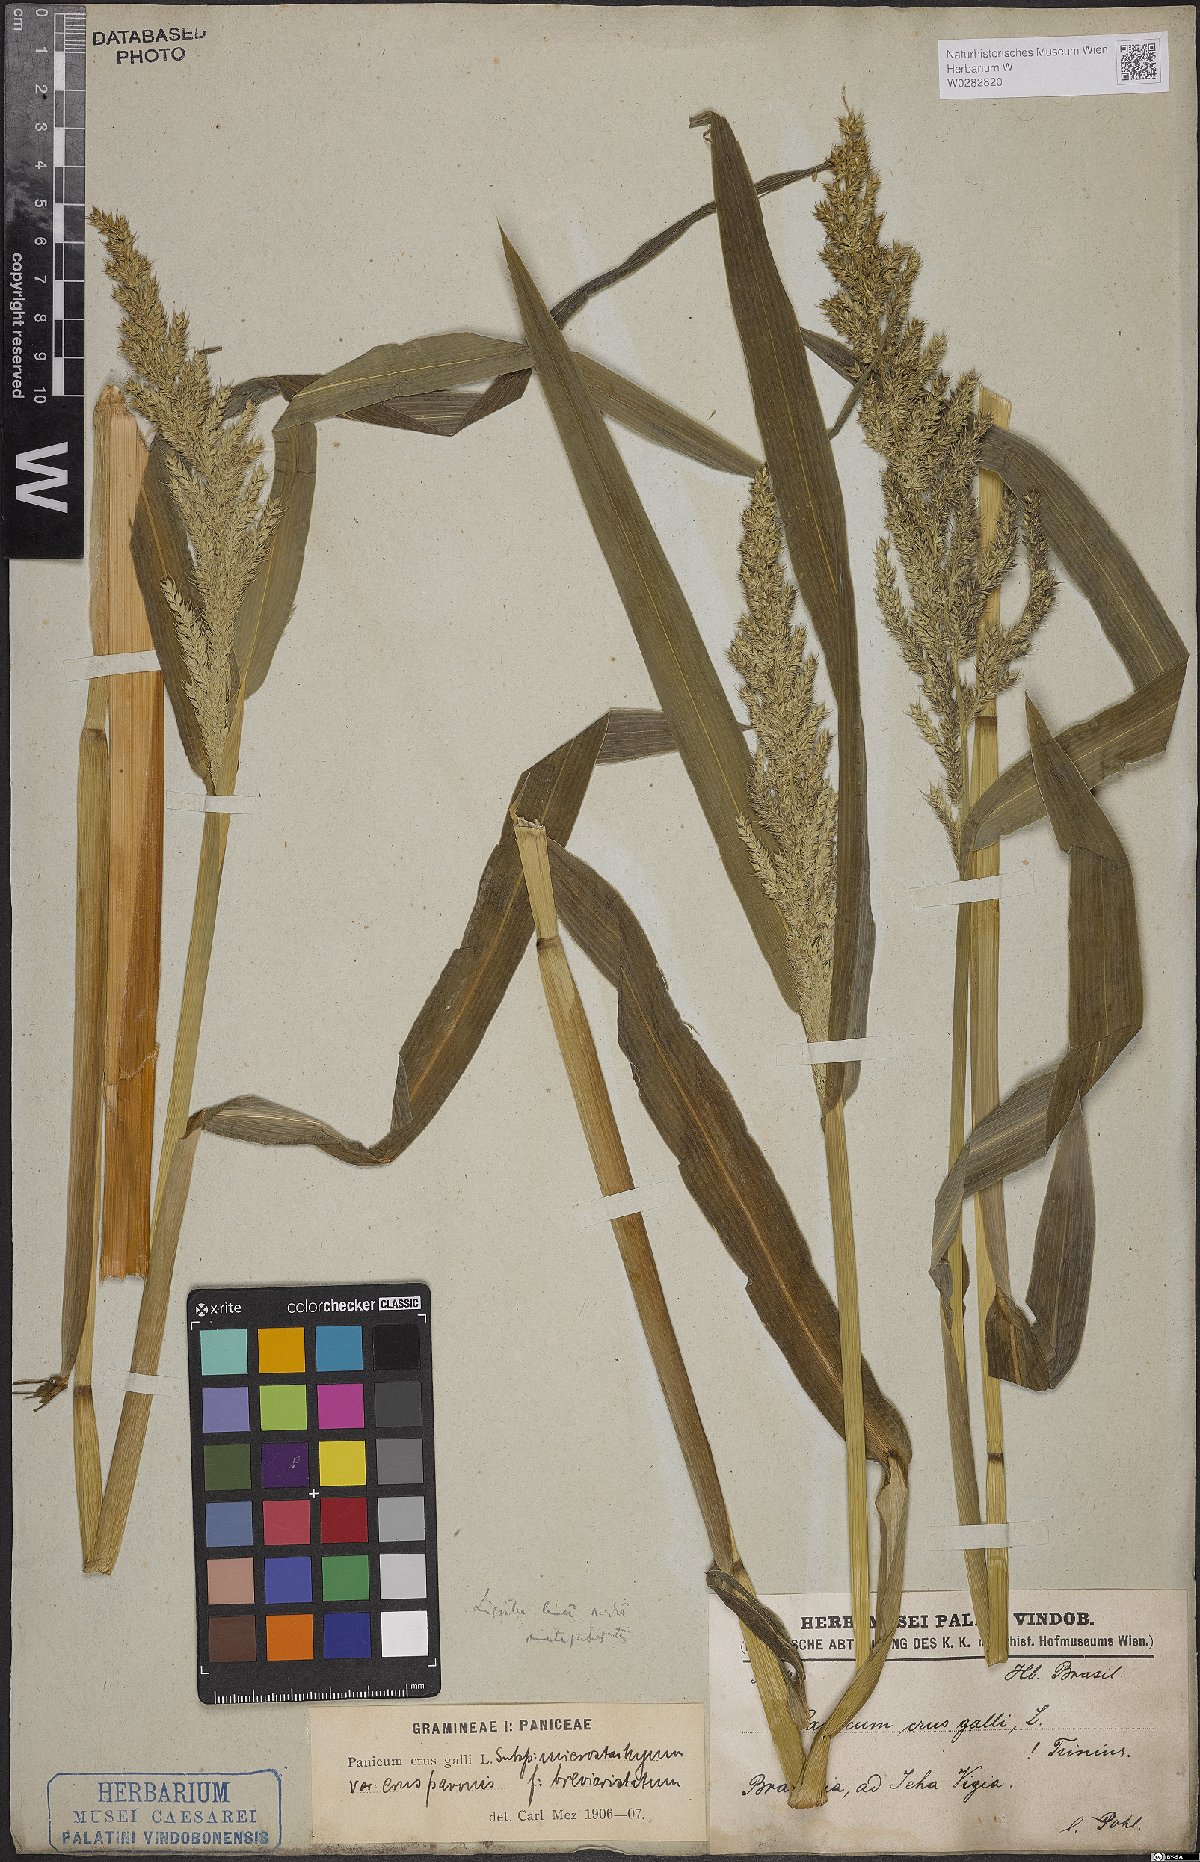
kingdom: Plantae
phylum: Tracheophyta
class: Liliopsida
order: Poales
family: Poaceae
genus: Echinochloa
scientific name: Echinochloa crus-galli
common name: Cockspur
